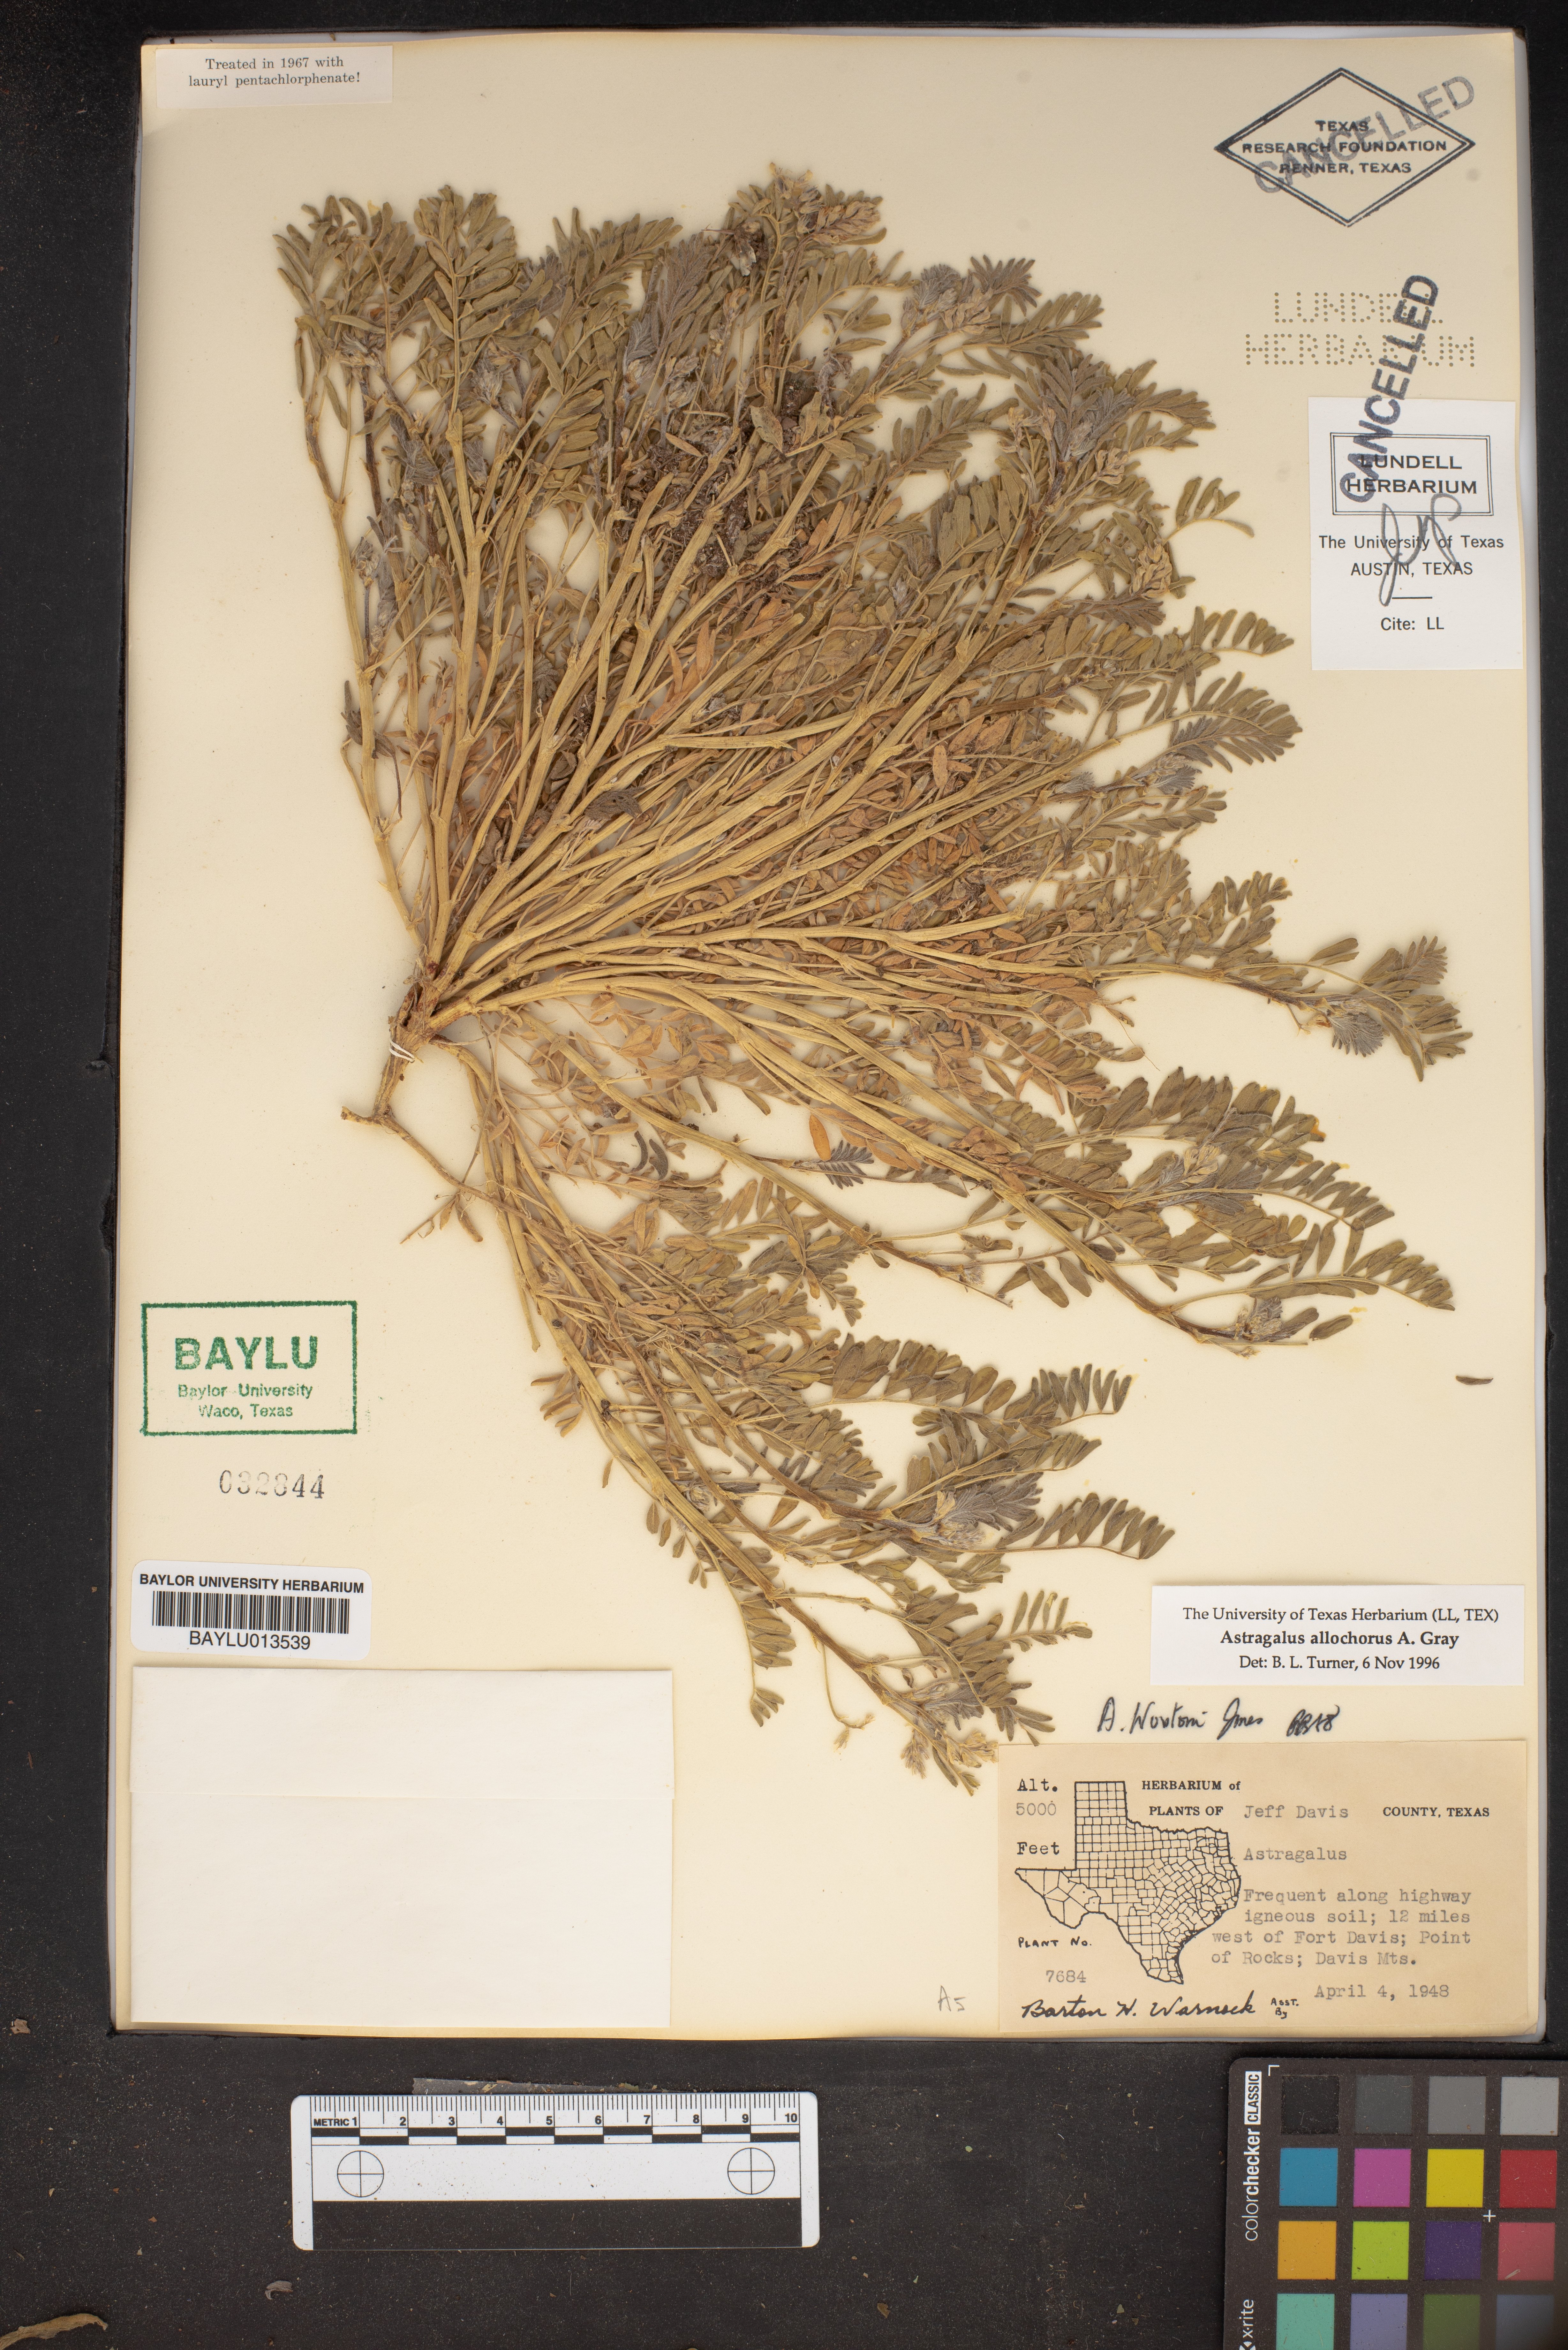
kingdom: Plantae
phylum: Tracheophyta
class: Magnoliopsida
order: Fabales
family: Fabaceae
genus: Astragalus
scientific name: Astragalus allochrous
